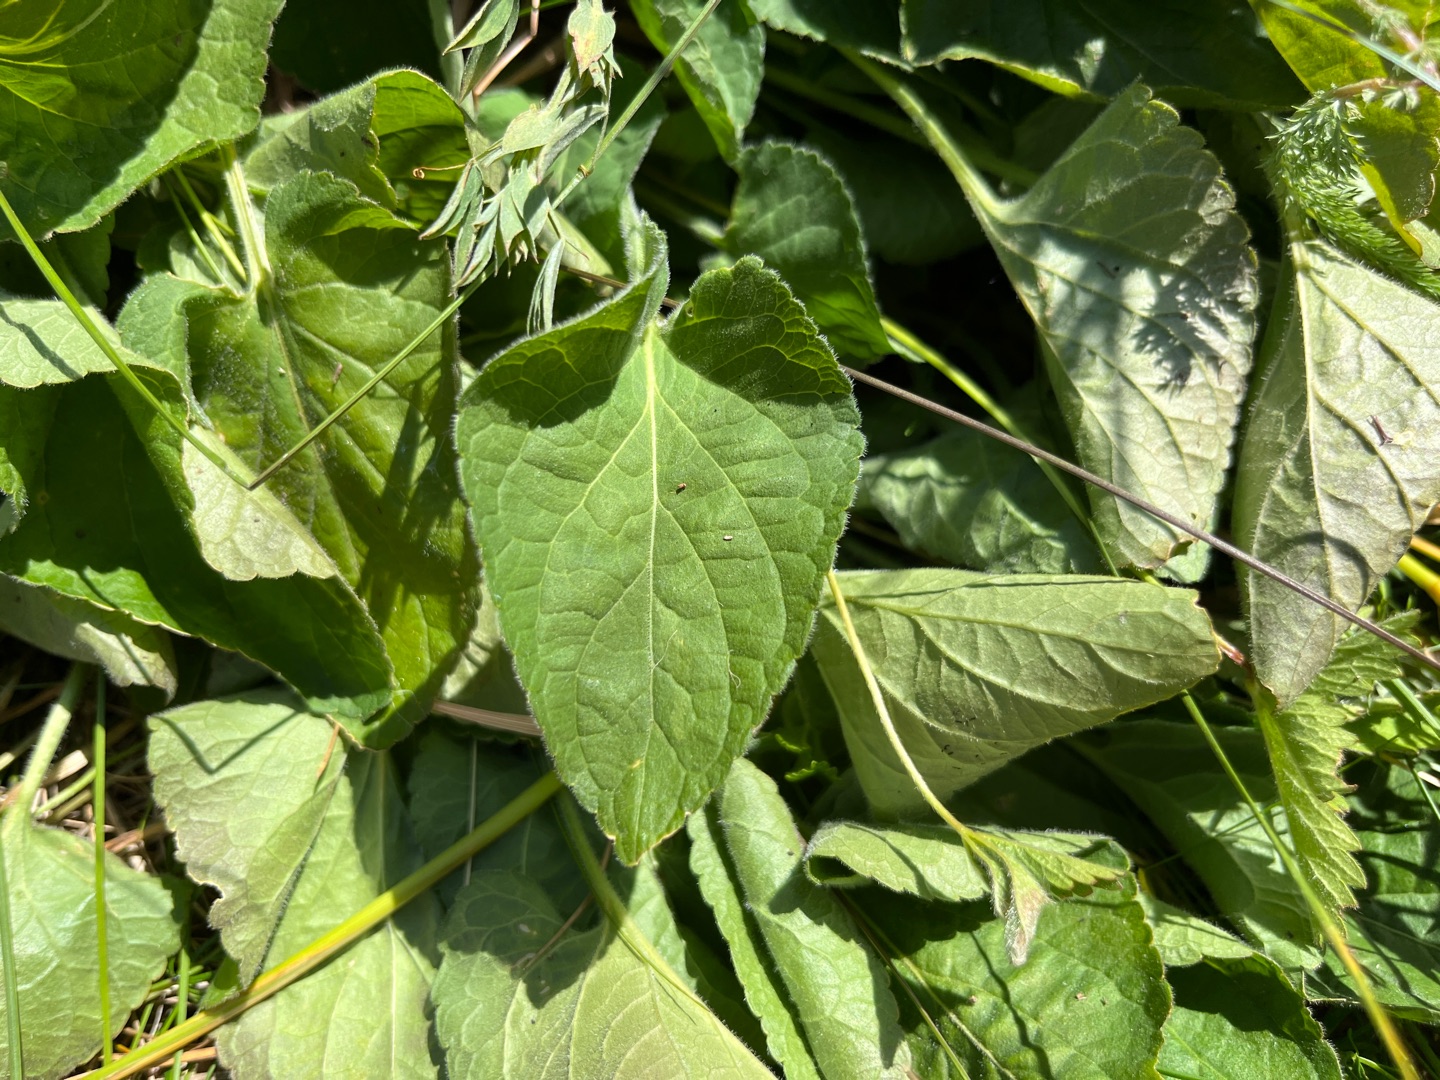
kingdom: Plantae
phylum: Tracheophyta
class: Magnoliopsida
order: Malpighiales
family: Violaceae
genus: Viola
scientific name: Viola hirta
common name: Håret viol
